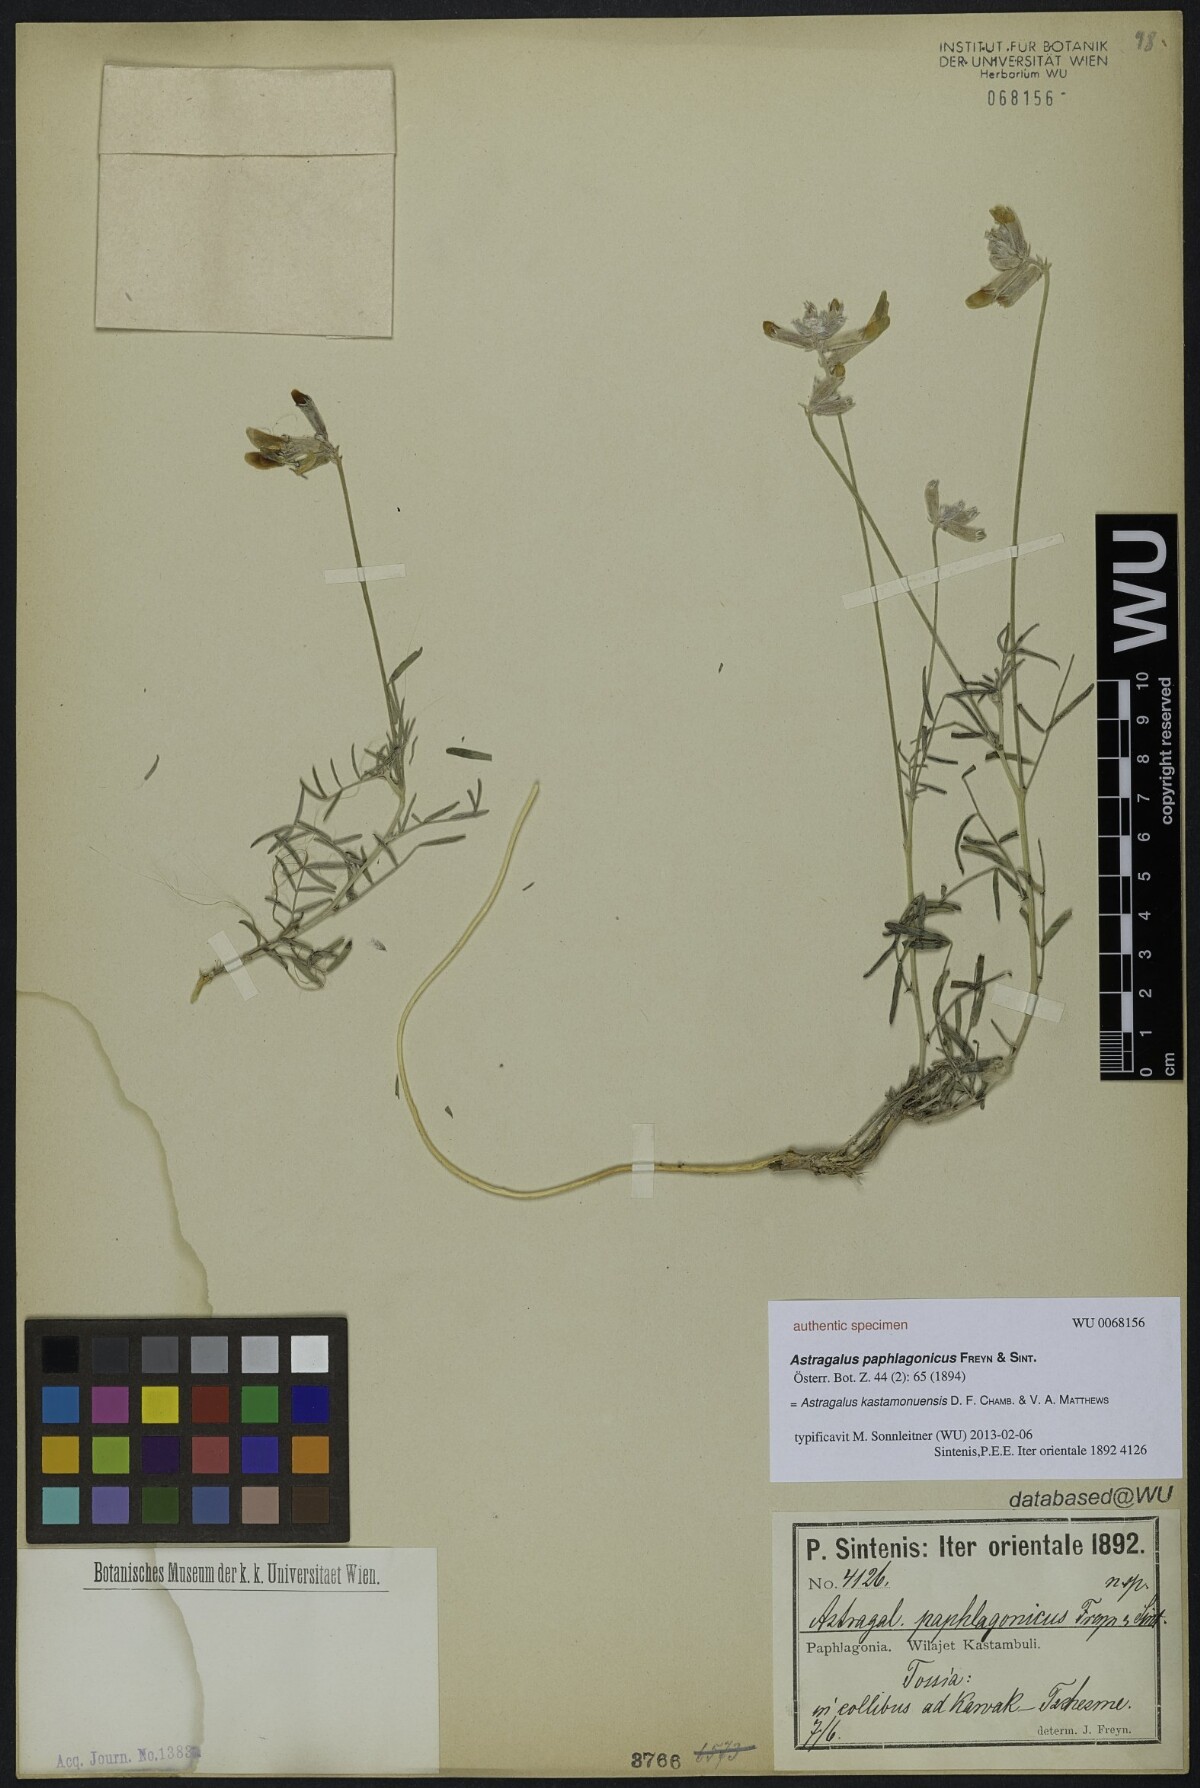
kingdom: Plantae
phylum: Tracheophyta
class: Magnoliopsida
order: Fabales
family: Fabaceae
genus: Astragalus
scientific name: Astragalus kastamonuensis
